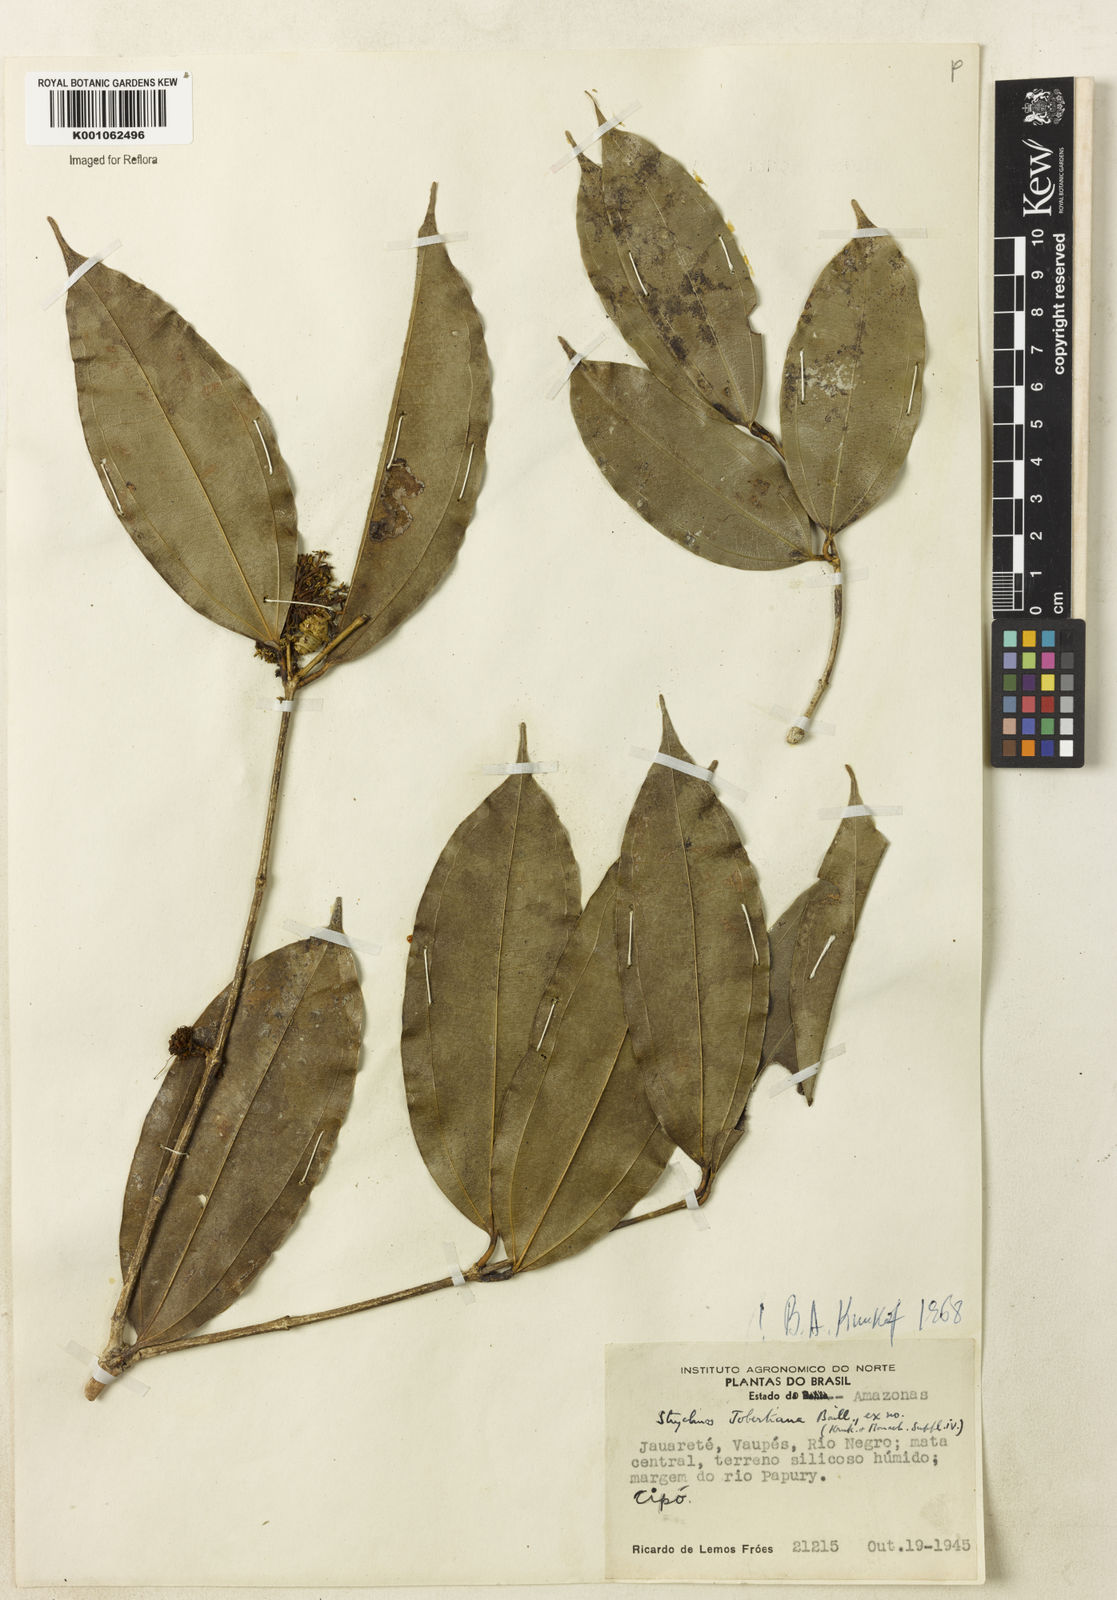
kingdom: Plantae
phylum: Tracheophyta
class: Magnoliopsida
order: Gentianales
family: Loganiaceae
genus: Strychnos
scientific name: Strychnos jobertiana
